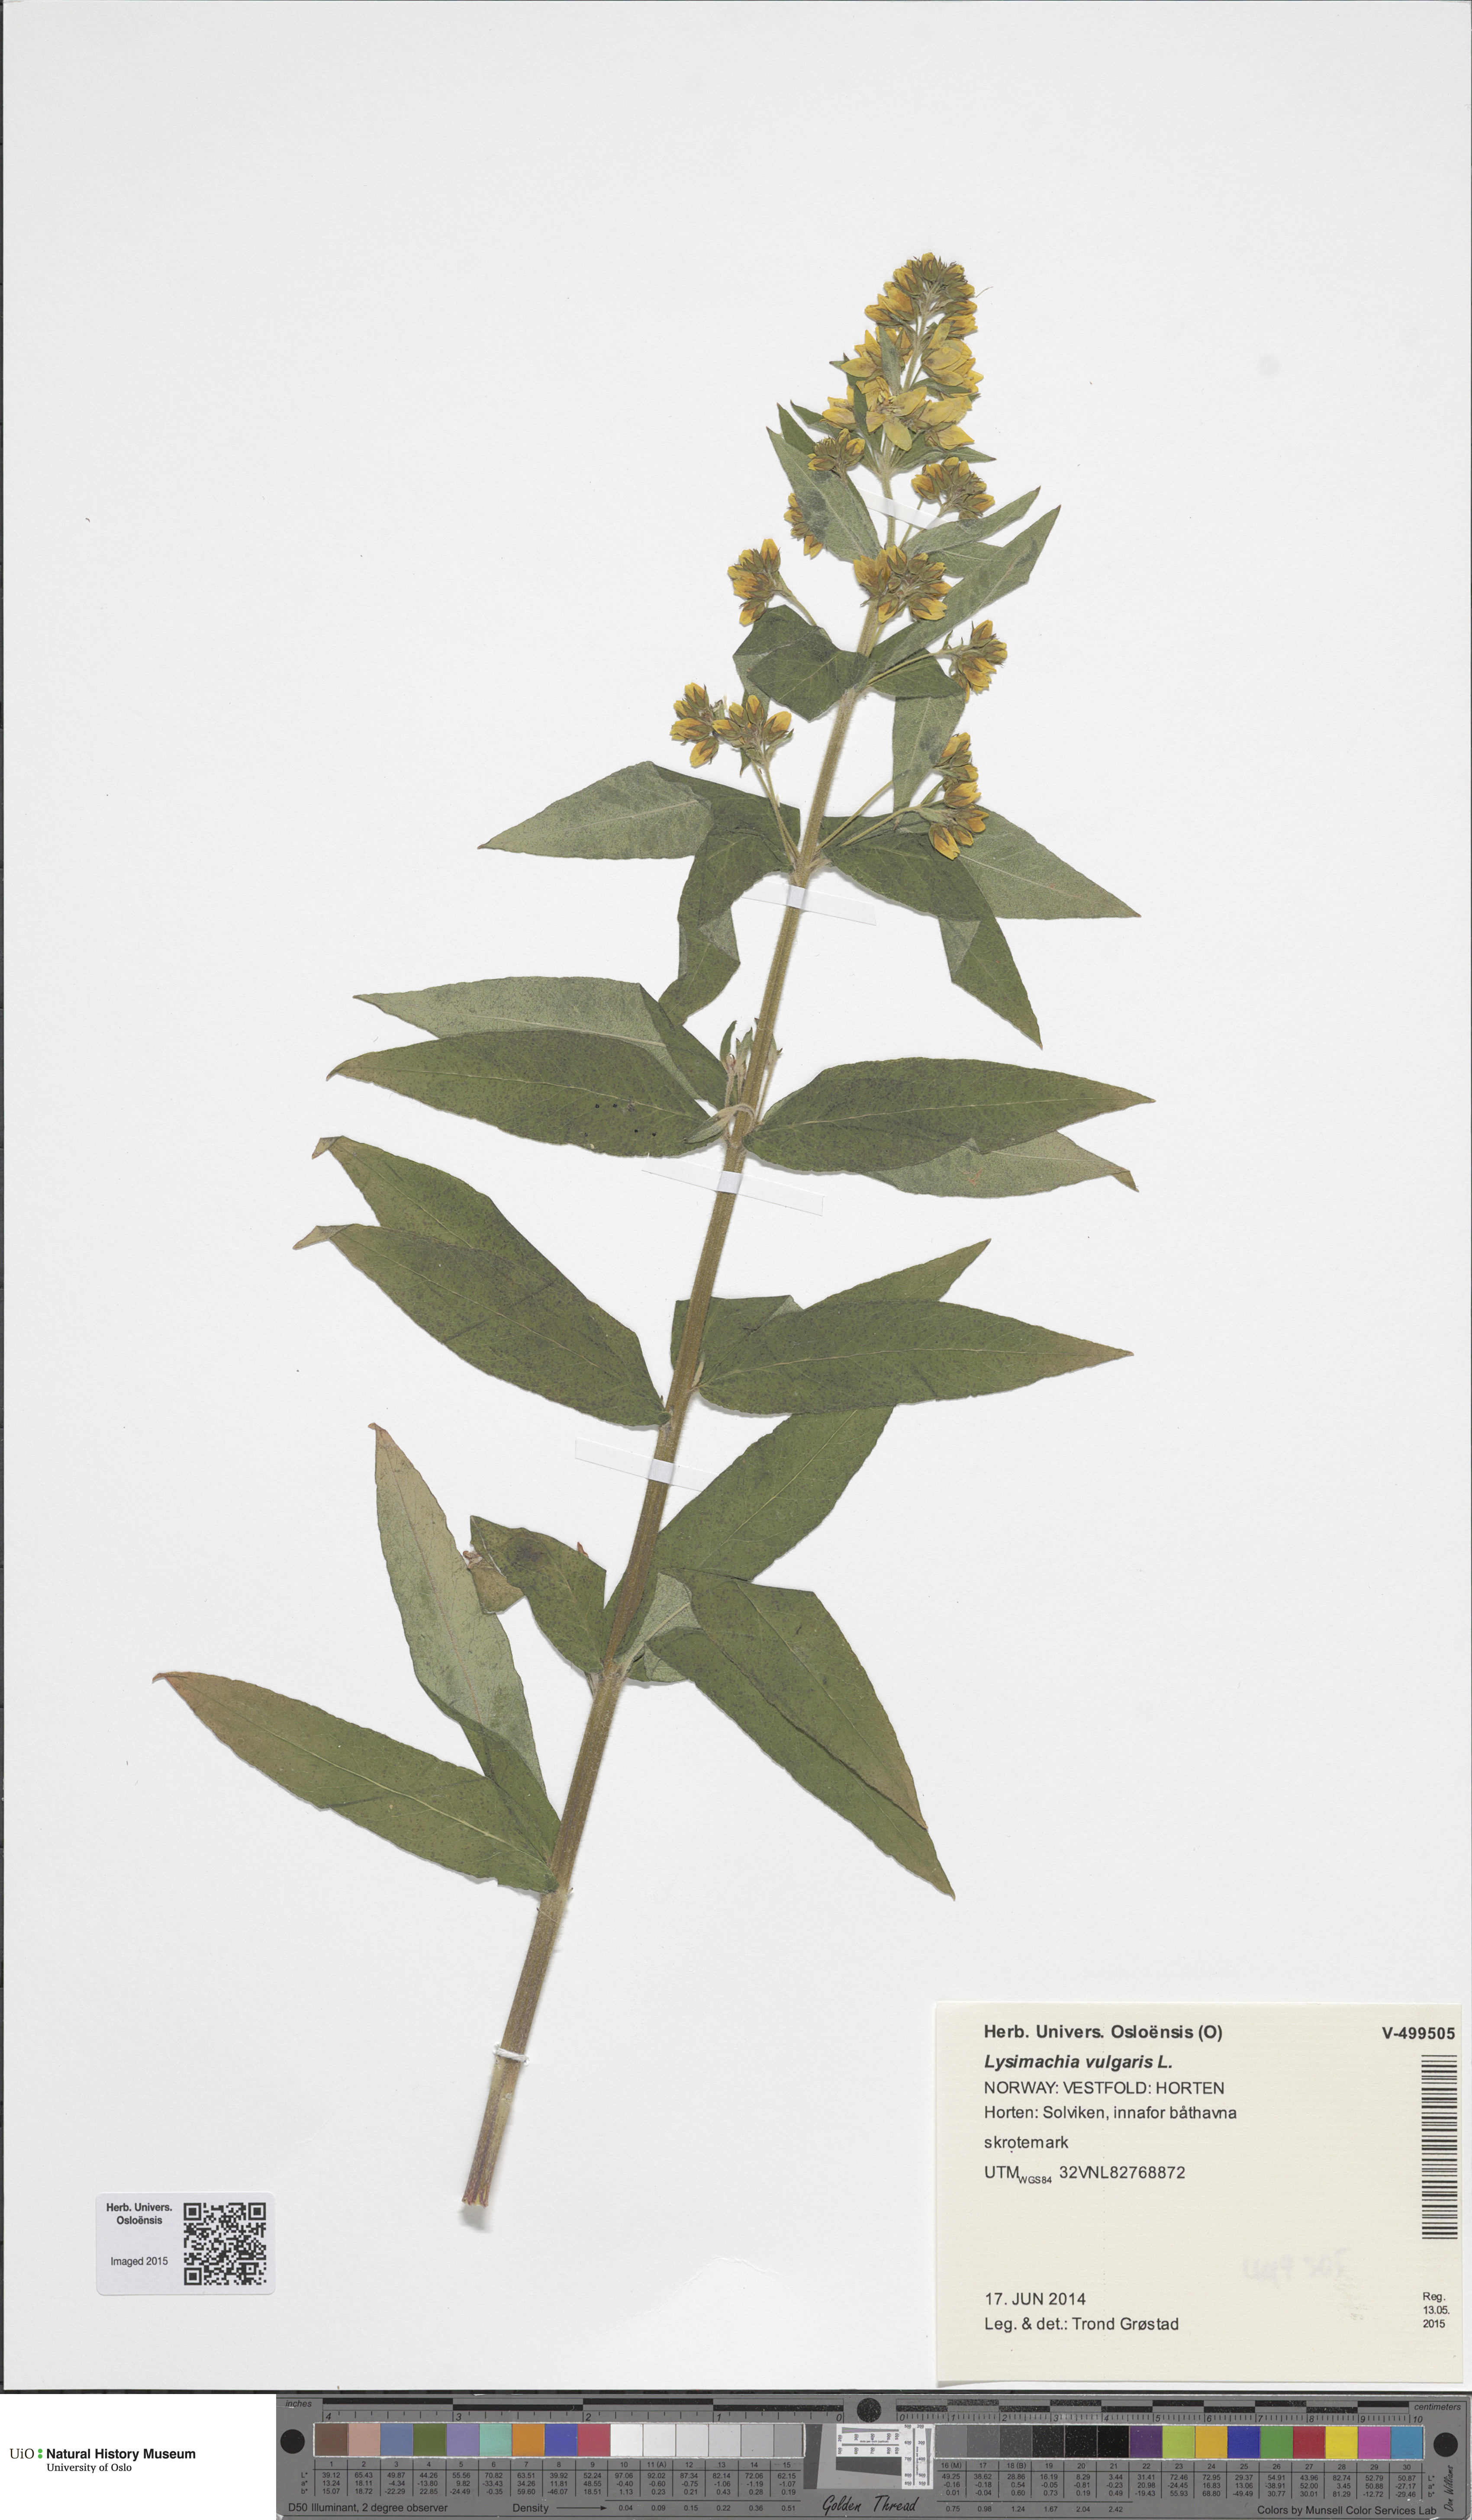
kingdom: Plantae
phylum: Tracheophyta
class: Magnoliopsida
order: Ericales
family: Primulaceae
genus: Lysimachia
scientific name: Lysimachia vulgaris
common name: Yellow loosestrife
